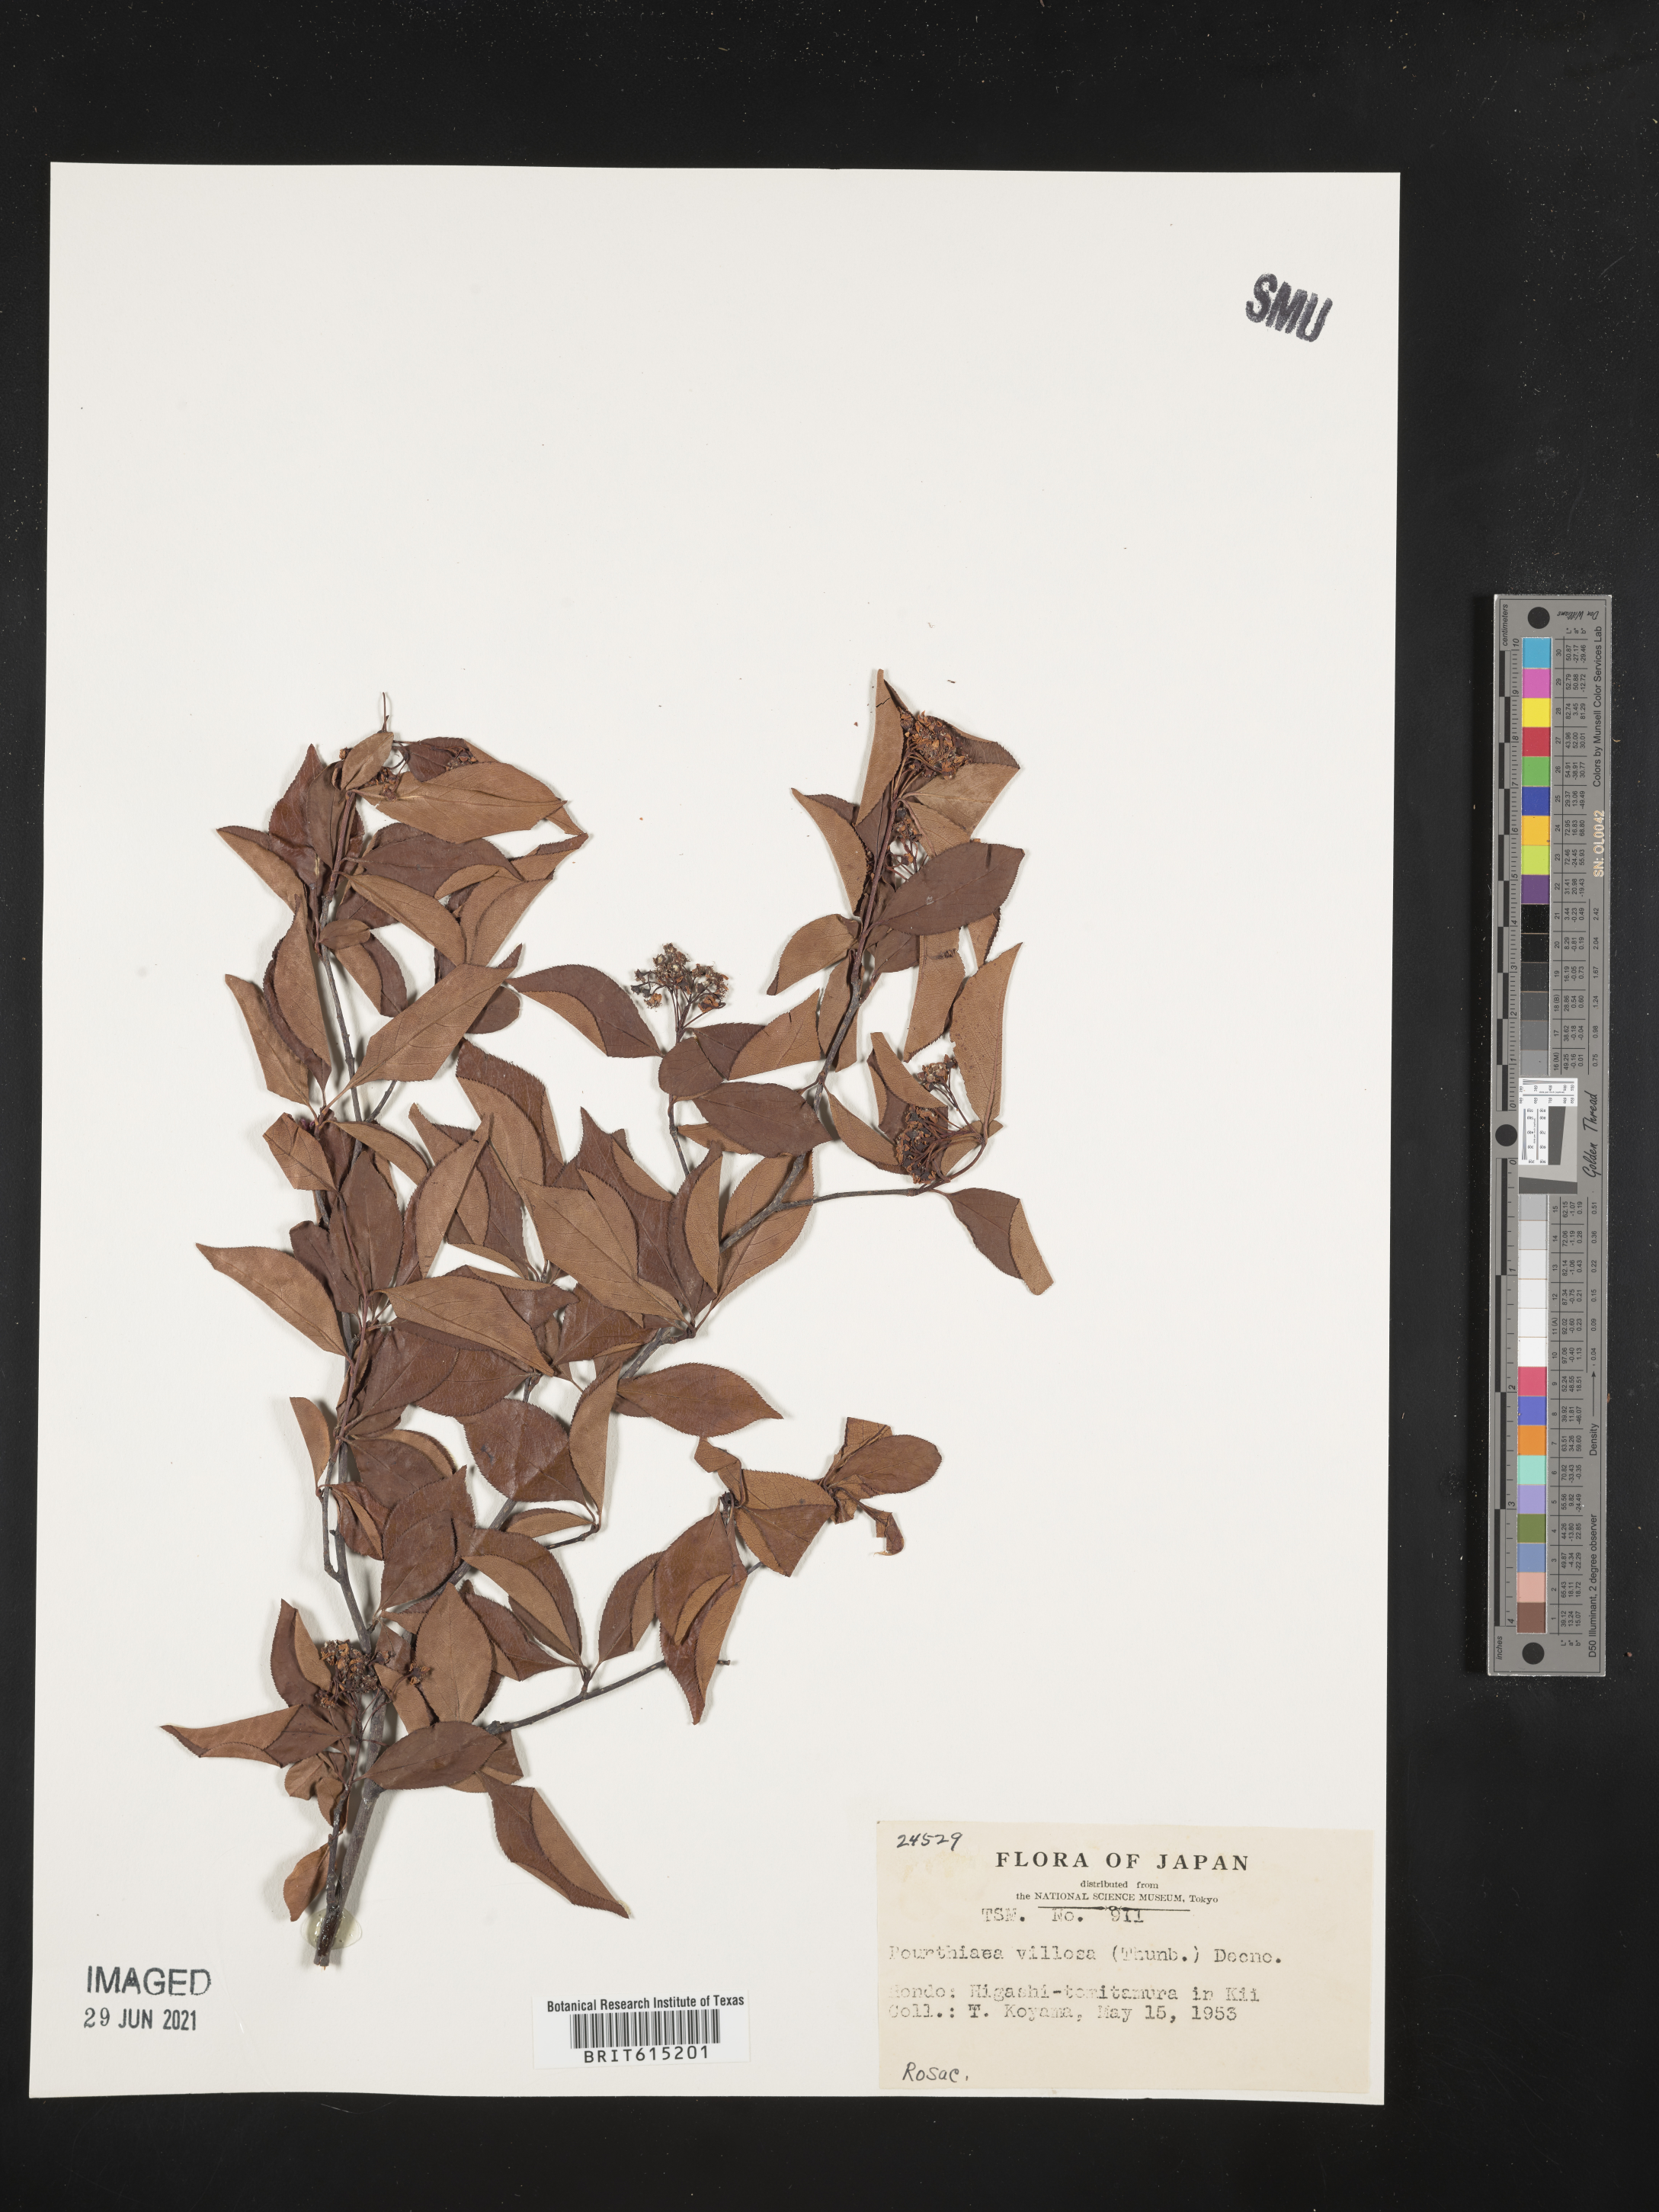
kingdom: Plantae
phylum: Tracheophyta
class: Magnoliopsida
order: Rosales
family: Rosaceae
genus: Pourthiaea
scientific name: Pourthiaea villosa
